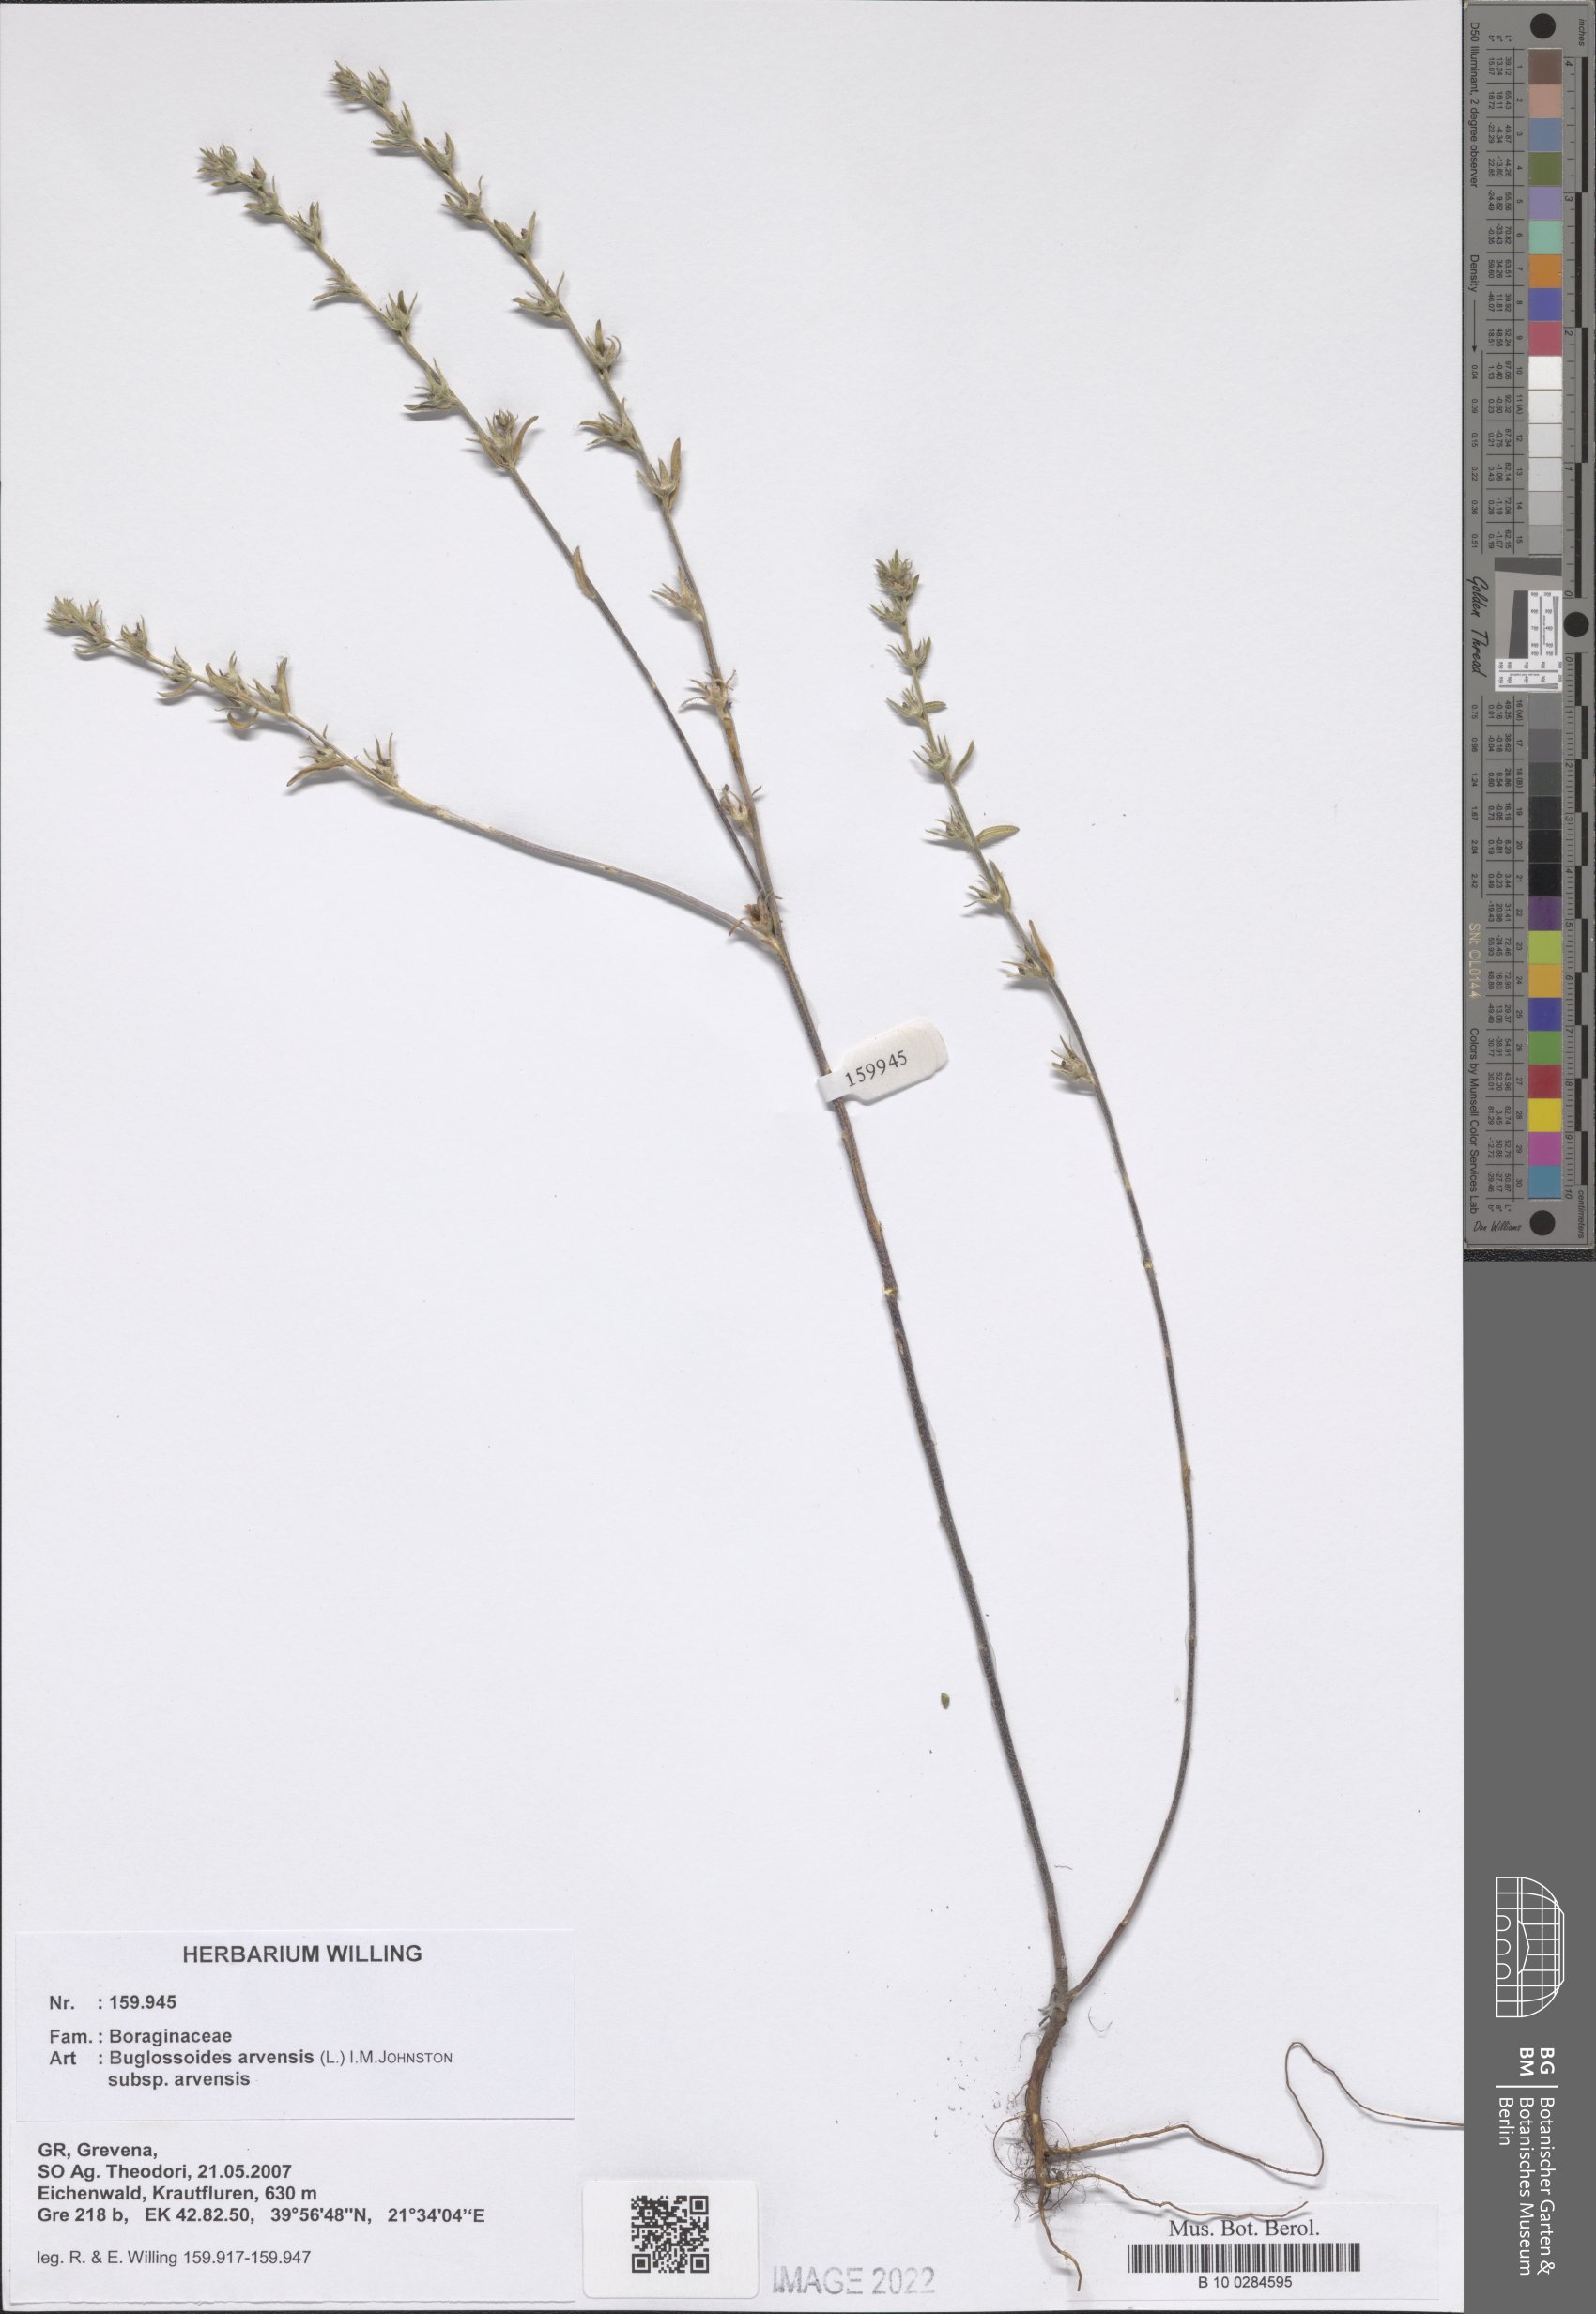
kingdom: Plantae
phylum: Tracheophyta
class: Magnoliopsida
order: Boraginales
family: Boraginaceae
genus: Buglossoides
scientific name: Buglossoides arvensis
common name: Corn gromwell
